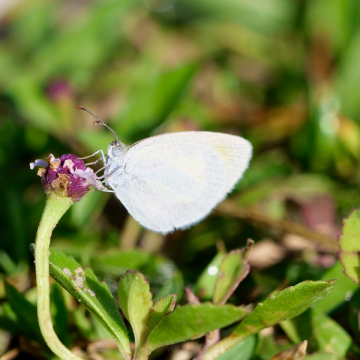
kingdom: Animalia
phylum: Arthropoda
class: Insecta
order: Lepidoptera
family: Pieridae
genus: Eurema
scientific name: Eurema daira
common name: Barred Yellow
